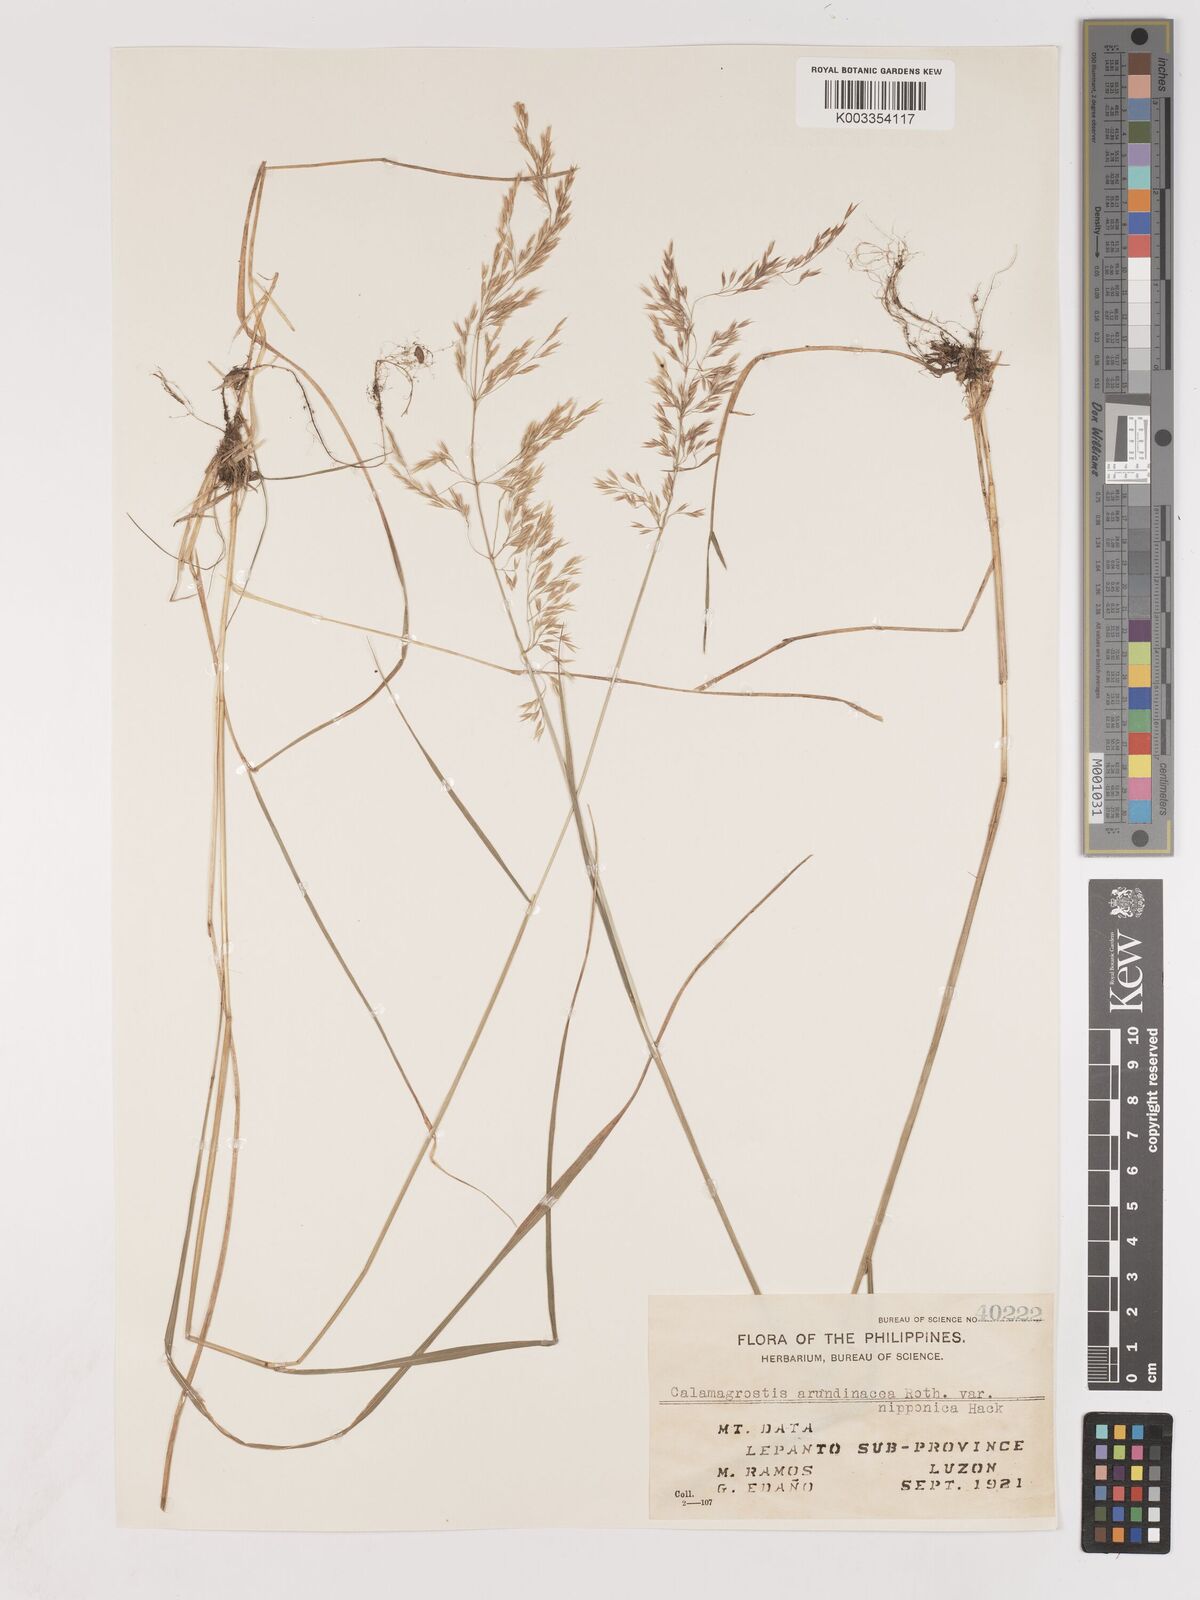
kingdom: Plantae
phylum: Tracheophyta
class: Liliopsida
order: Poales
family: Poaceae
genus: Calamagrostis
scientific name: Calamagrostis
